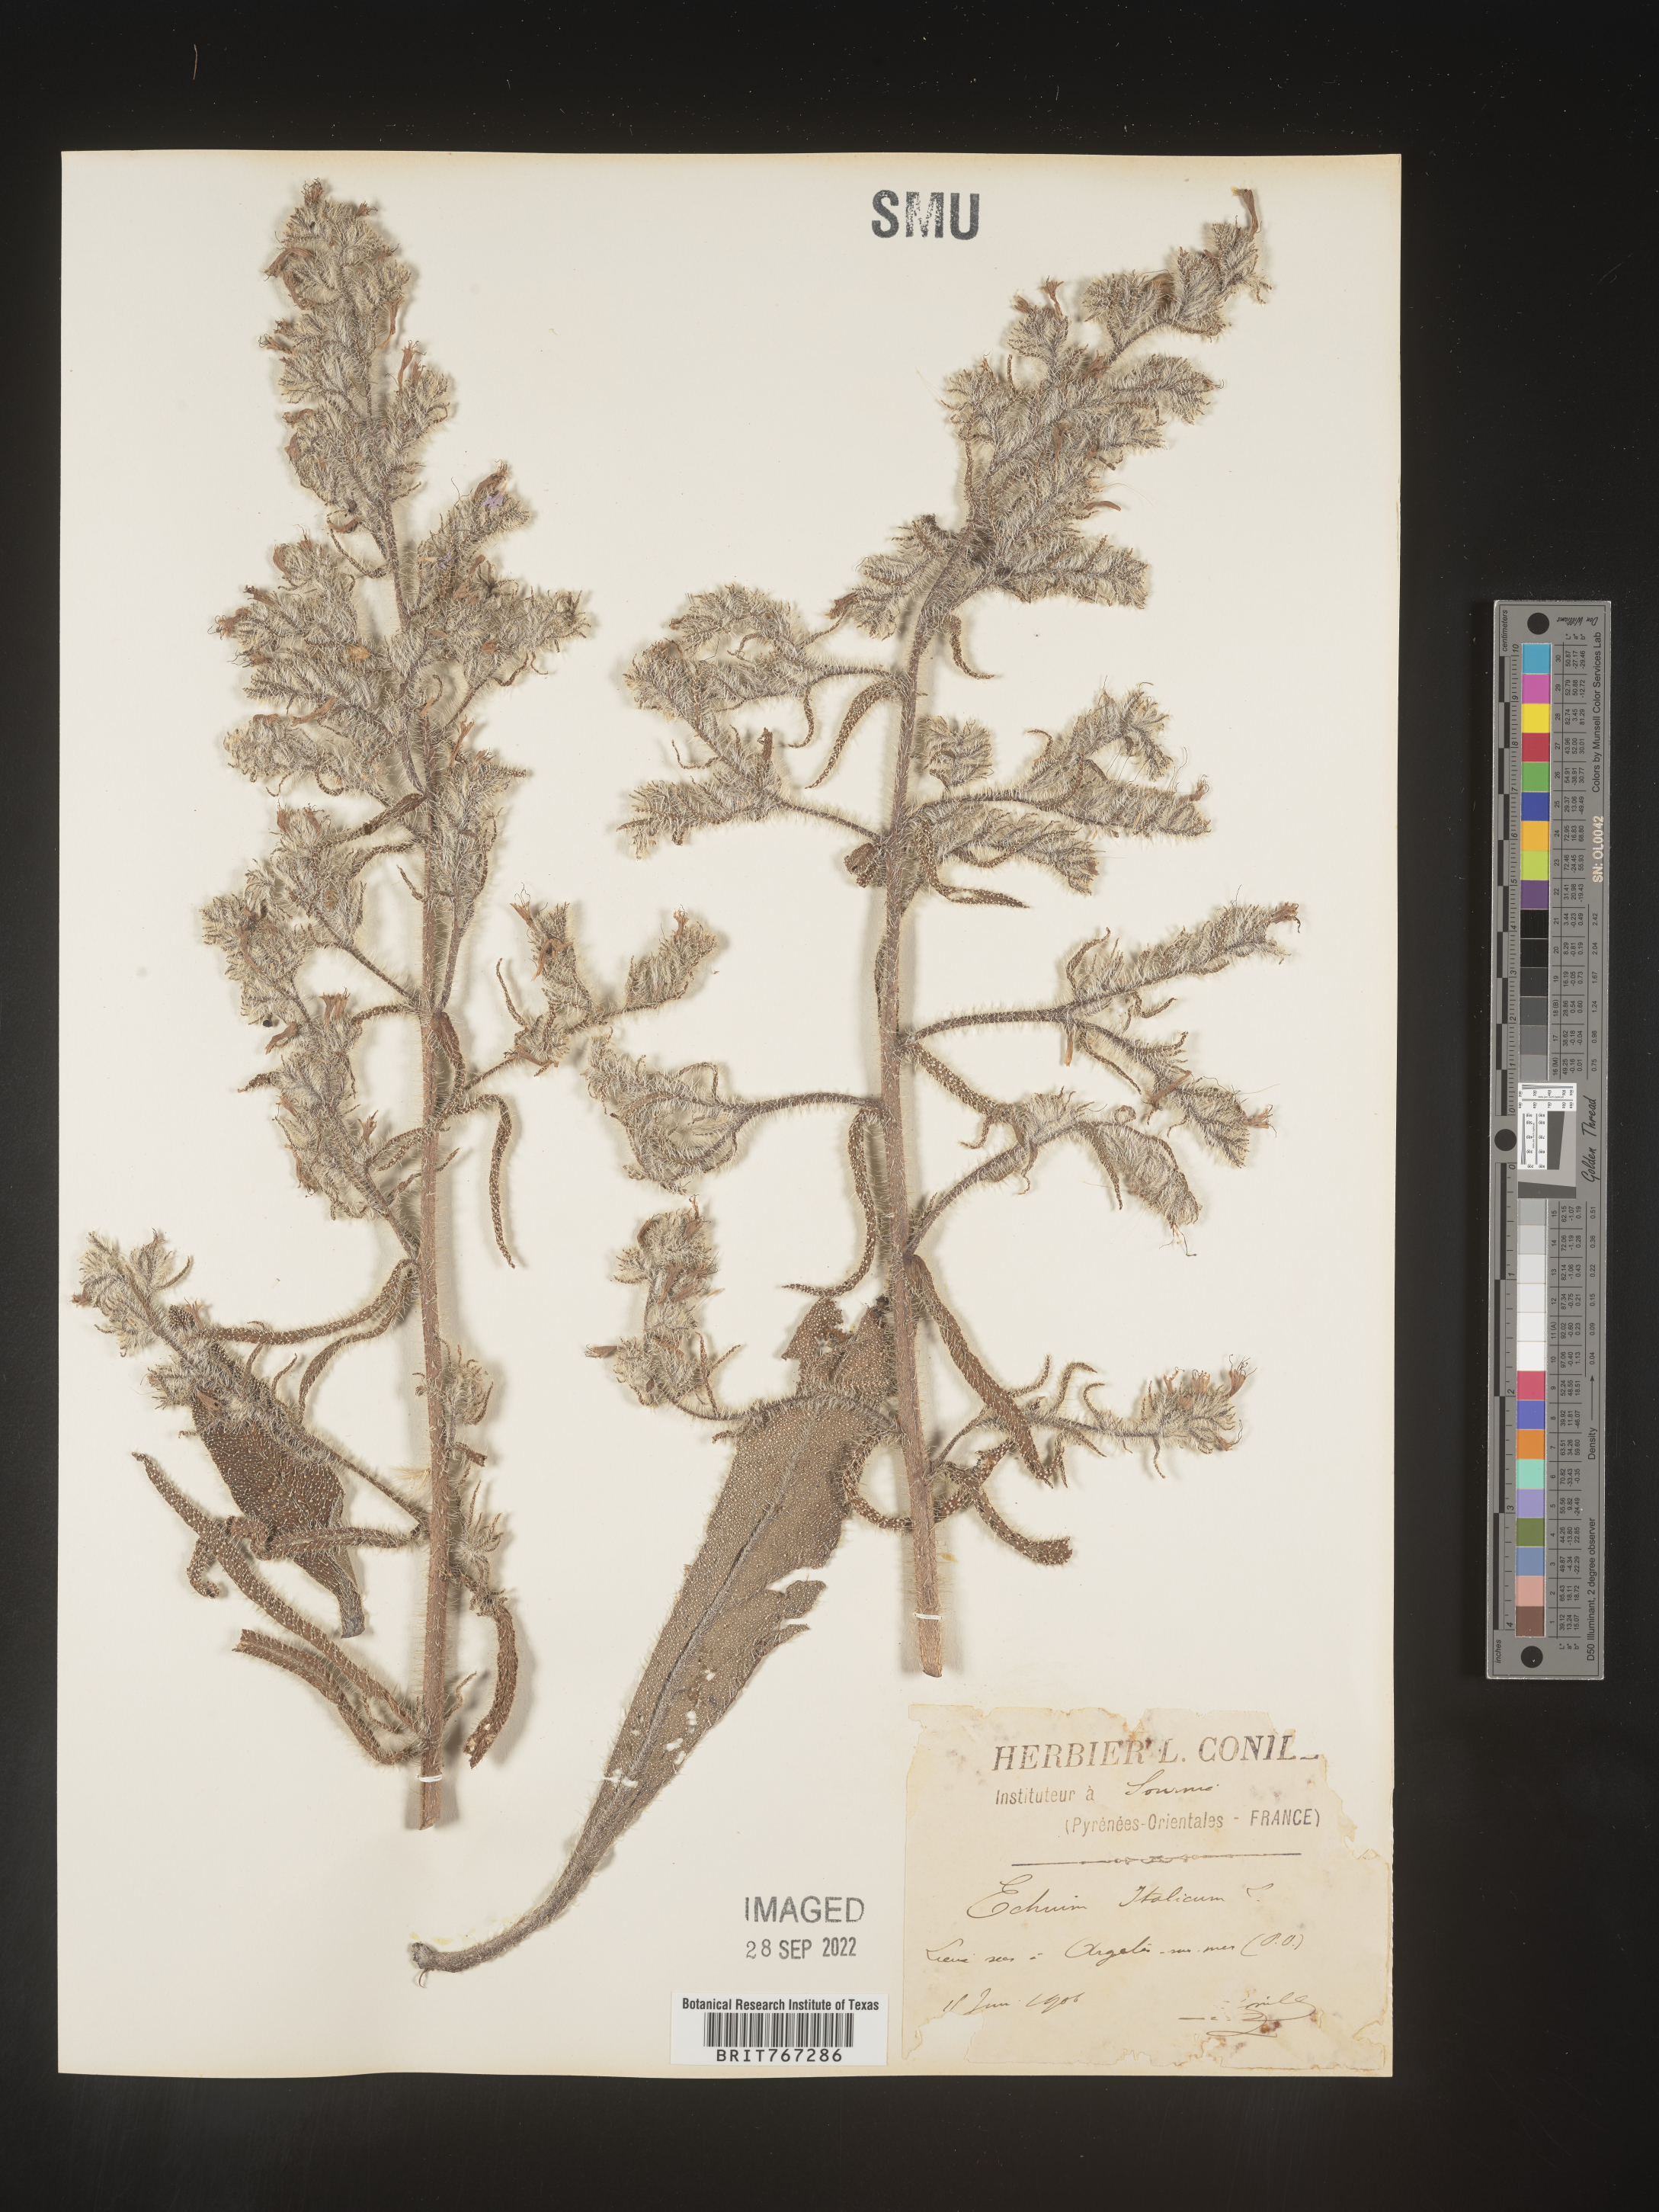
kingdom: Plantae
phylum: Tracheophyta
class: Magnoliopsida
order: Boraginales
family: Boraginaceae
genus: Echium
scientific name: Echium
